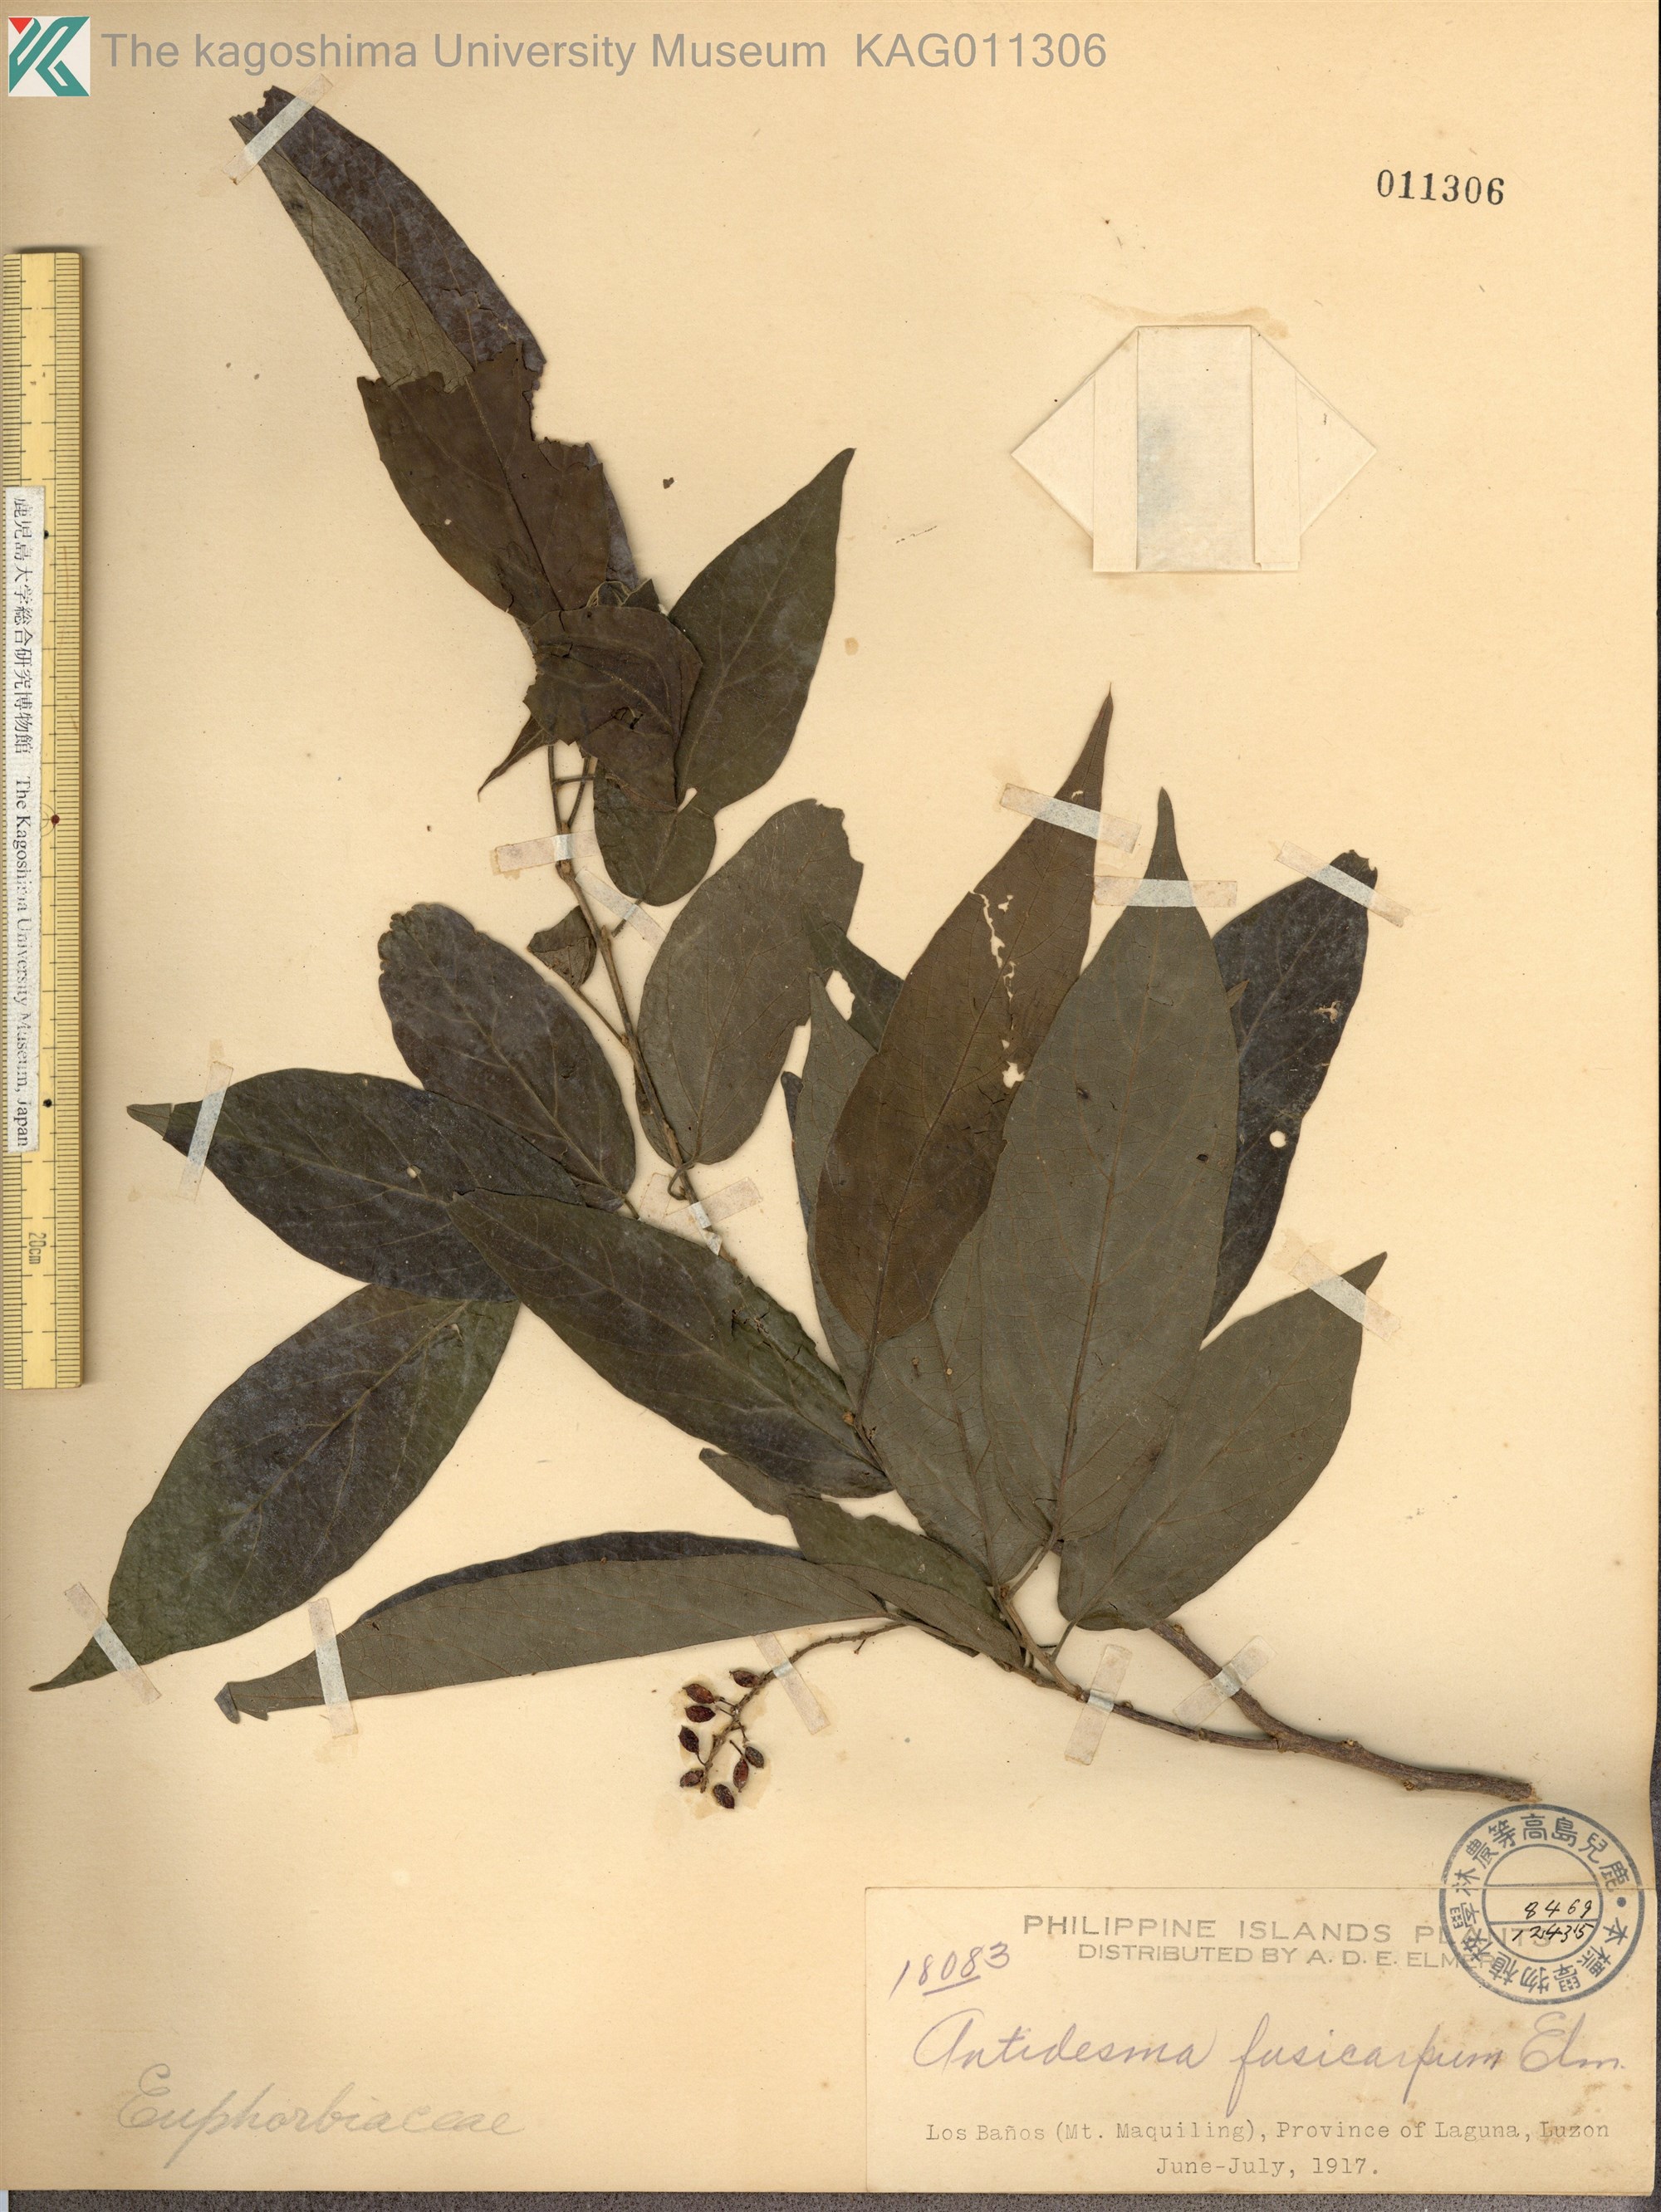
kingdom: Plantae
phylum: Tracheophyta
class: Magnoliopsida
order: Malpighiales
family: Phyllanthaceae
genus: Antidesma
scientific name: Antidesma subcordatum
